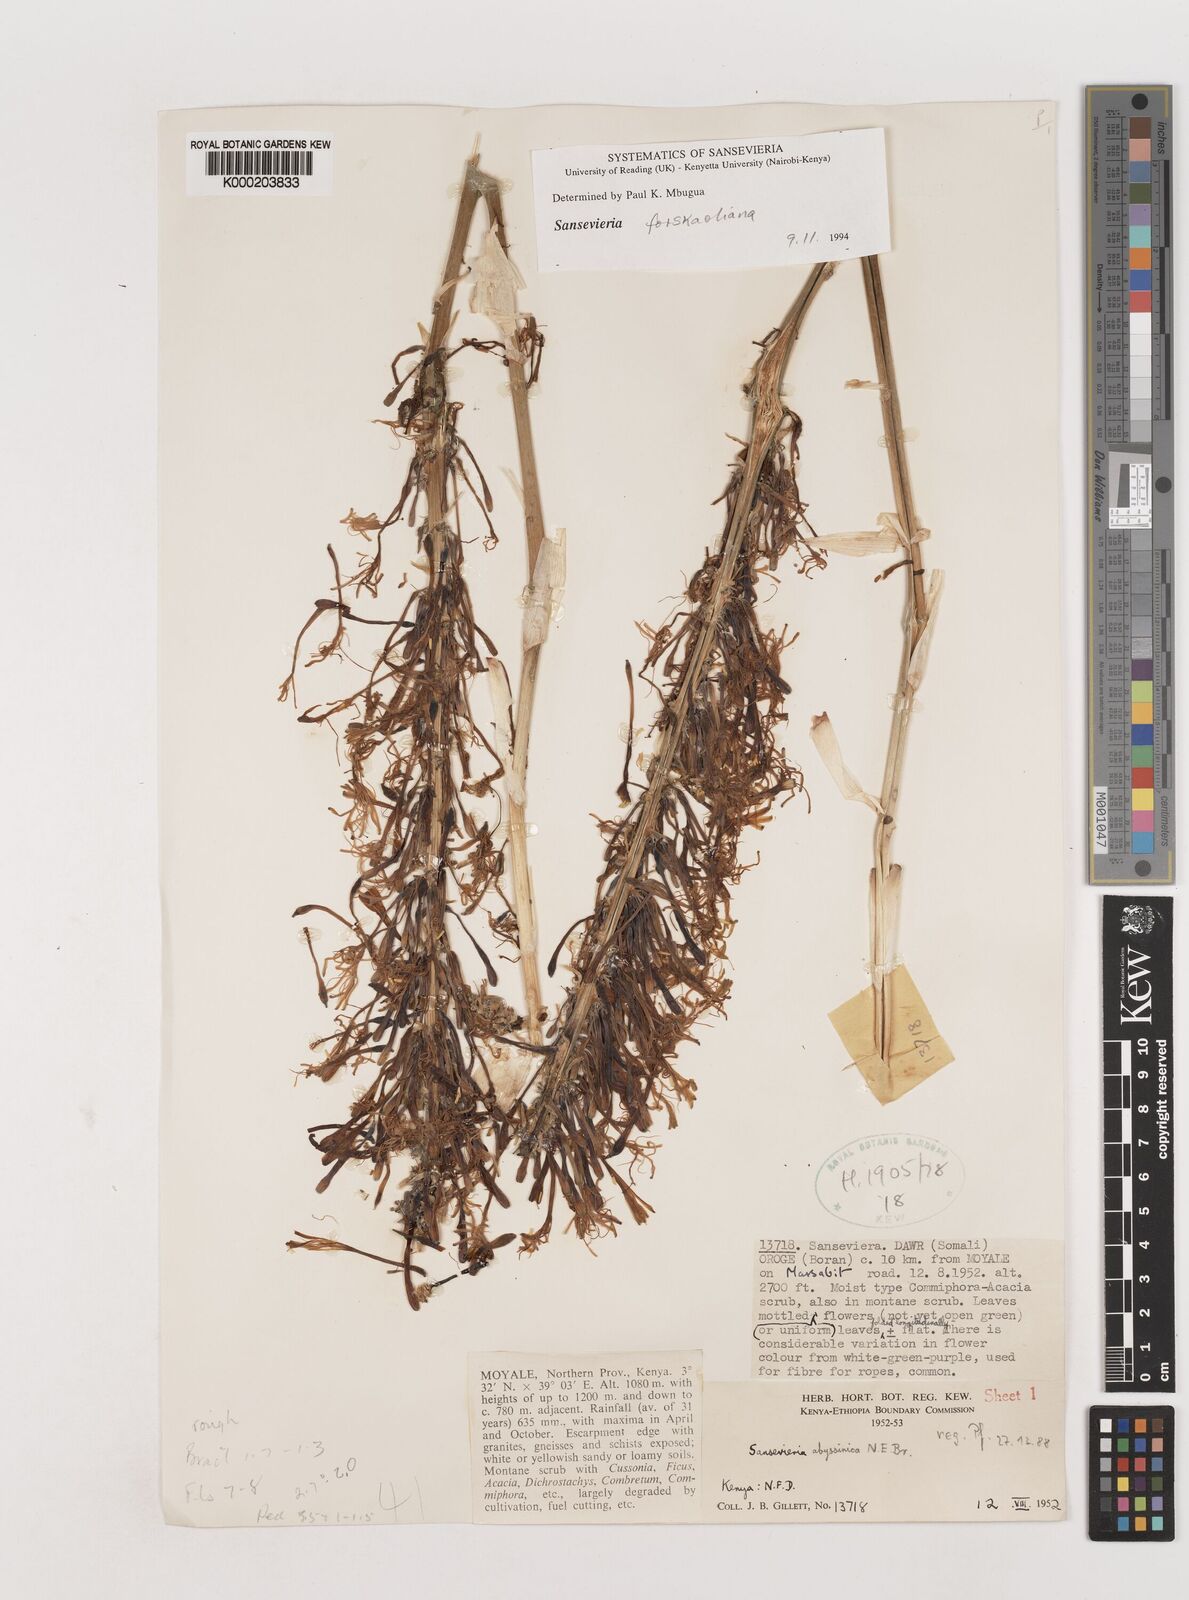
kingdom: Plantae
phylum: Tracheophyta
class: Liliopsida
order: Asparagales
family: Asparagaceae
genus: Dracaena
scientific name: Dracaena forskaliana
